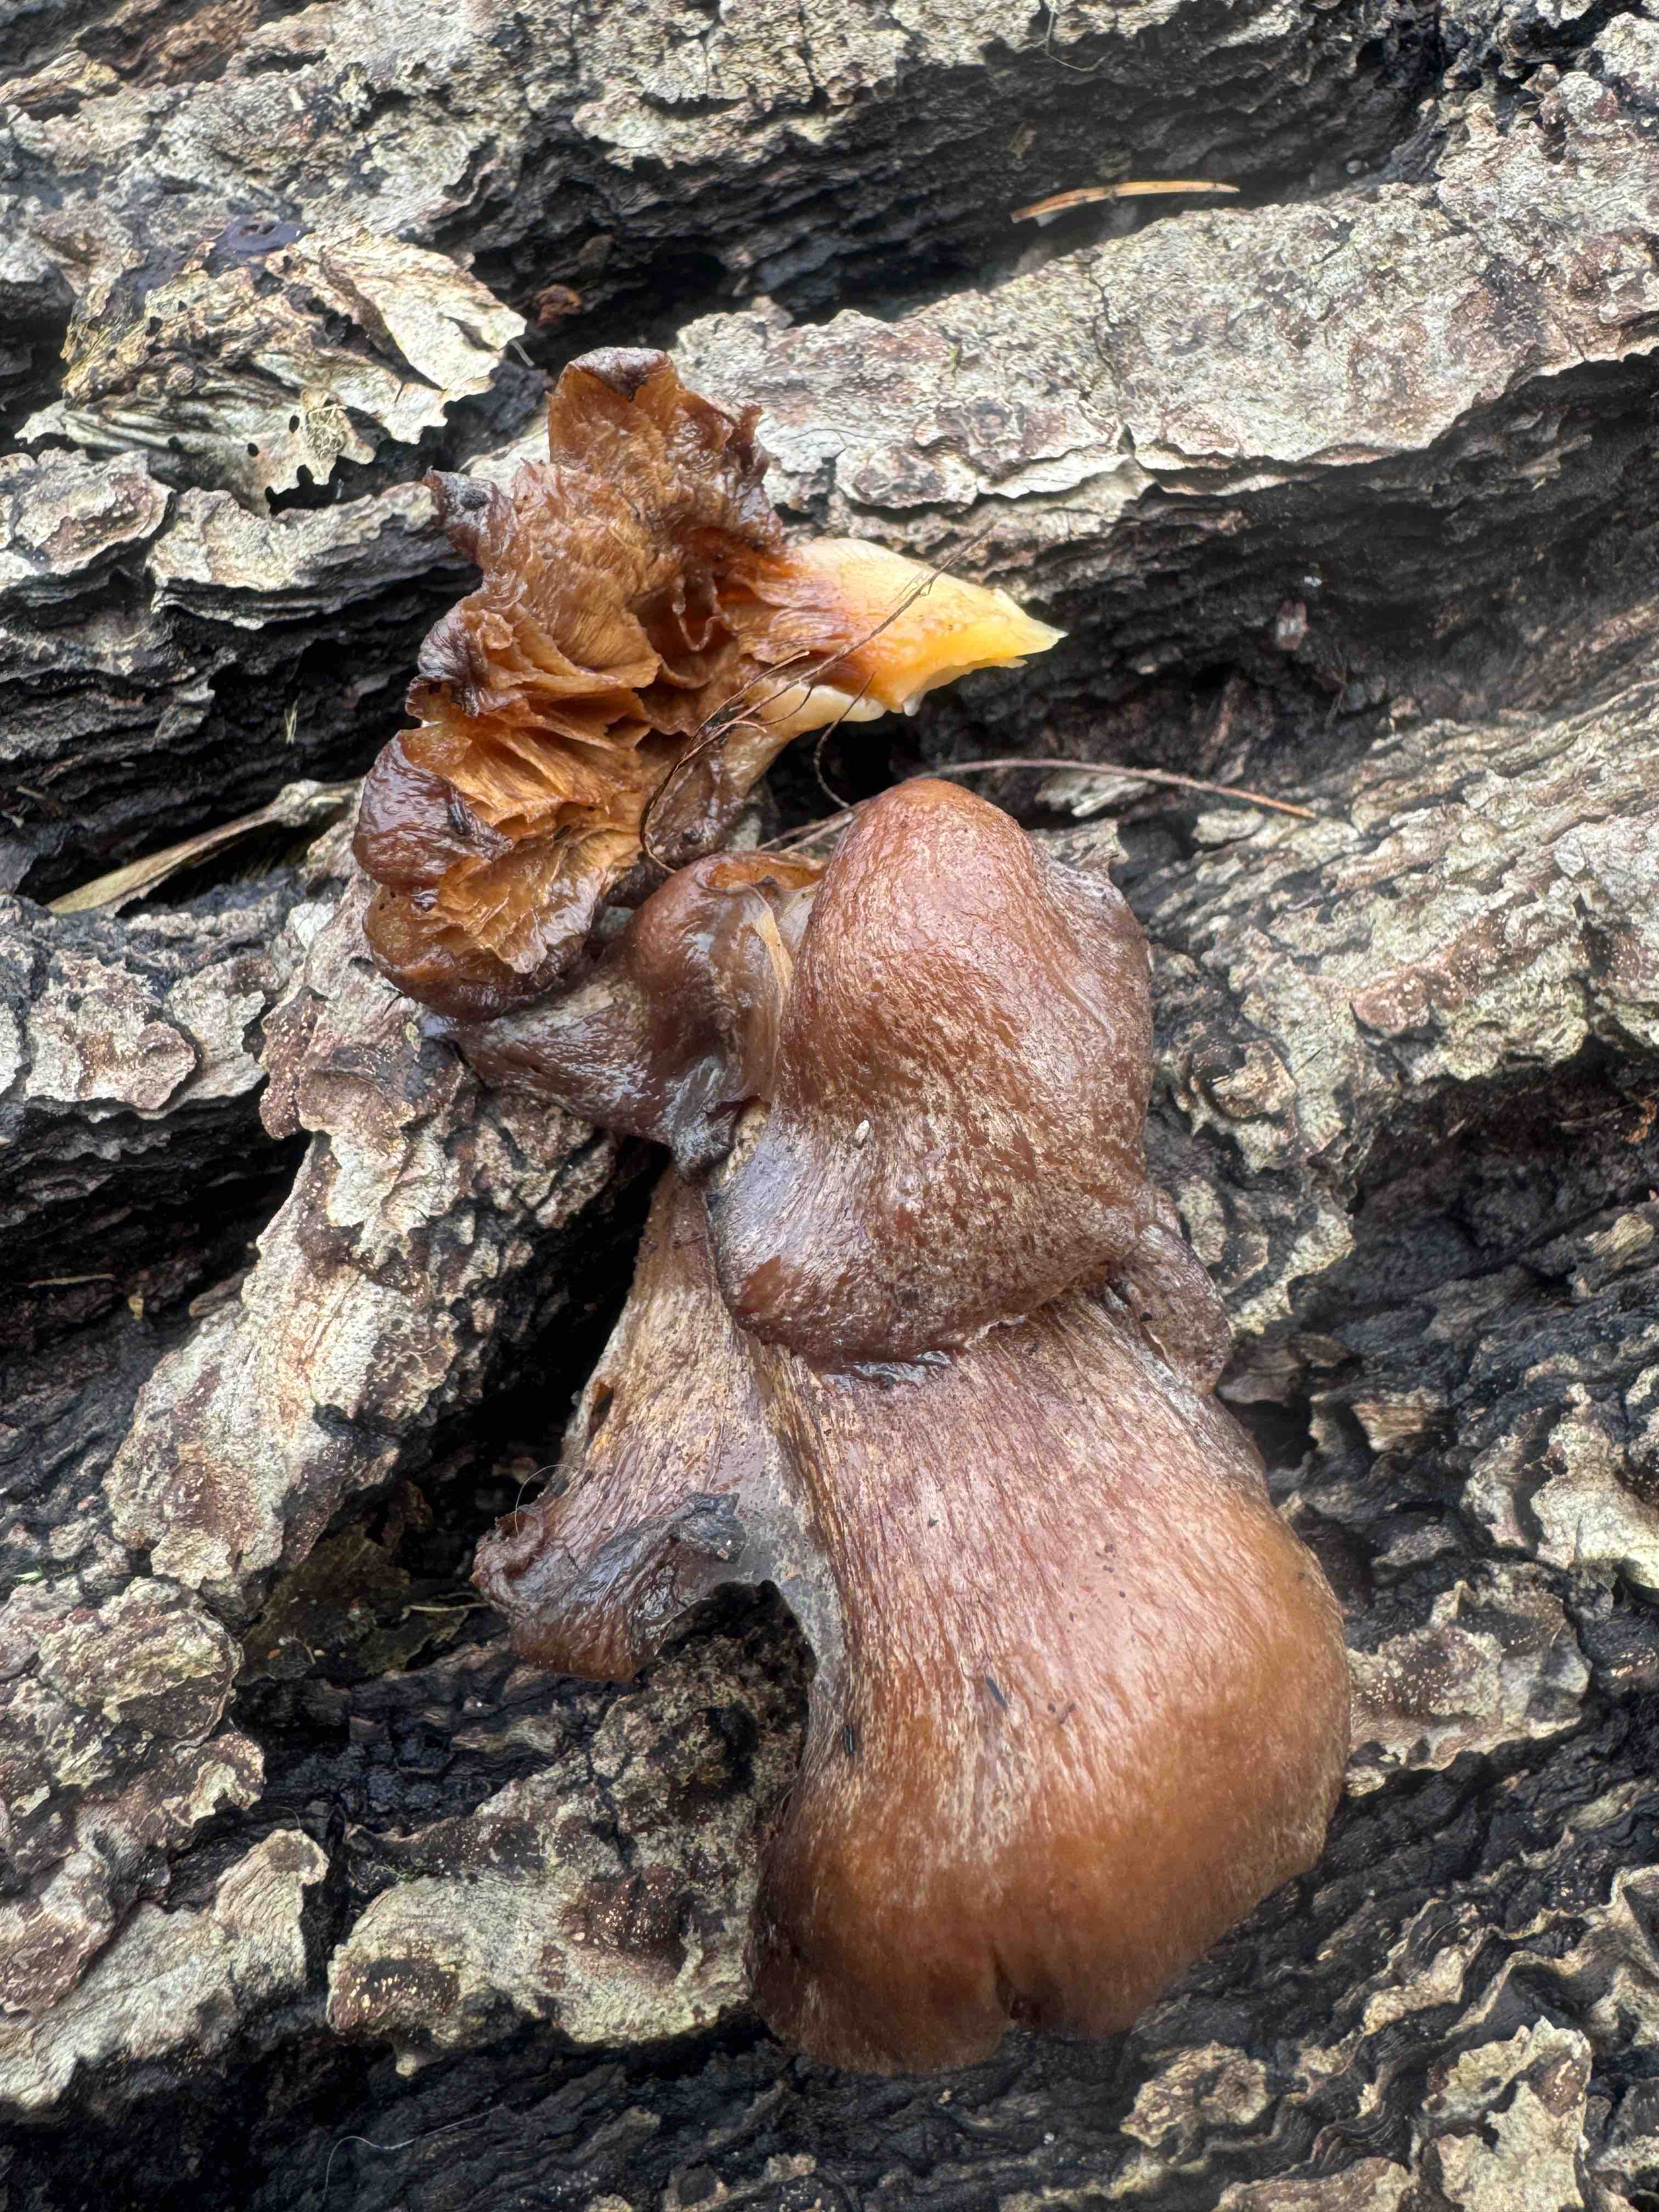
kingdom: Fungi
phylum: Basidiomycota
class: Agaricomycetes
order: Agaricales
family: Sarcomyxaceae
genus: Sarcomyxa
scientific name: Sarcomyxa serotina
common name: gummihat
